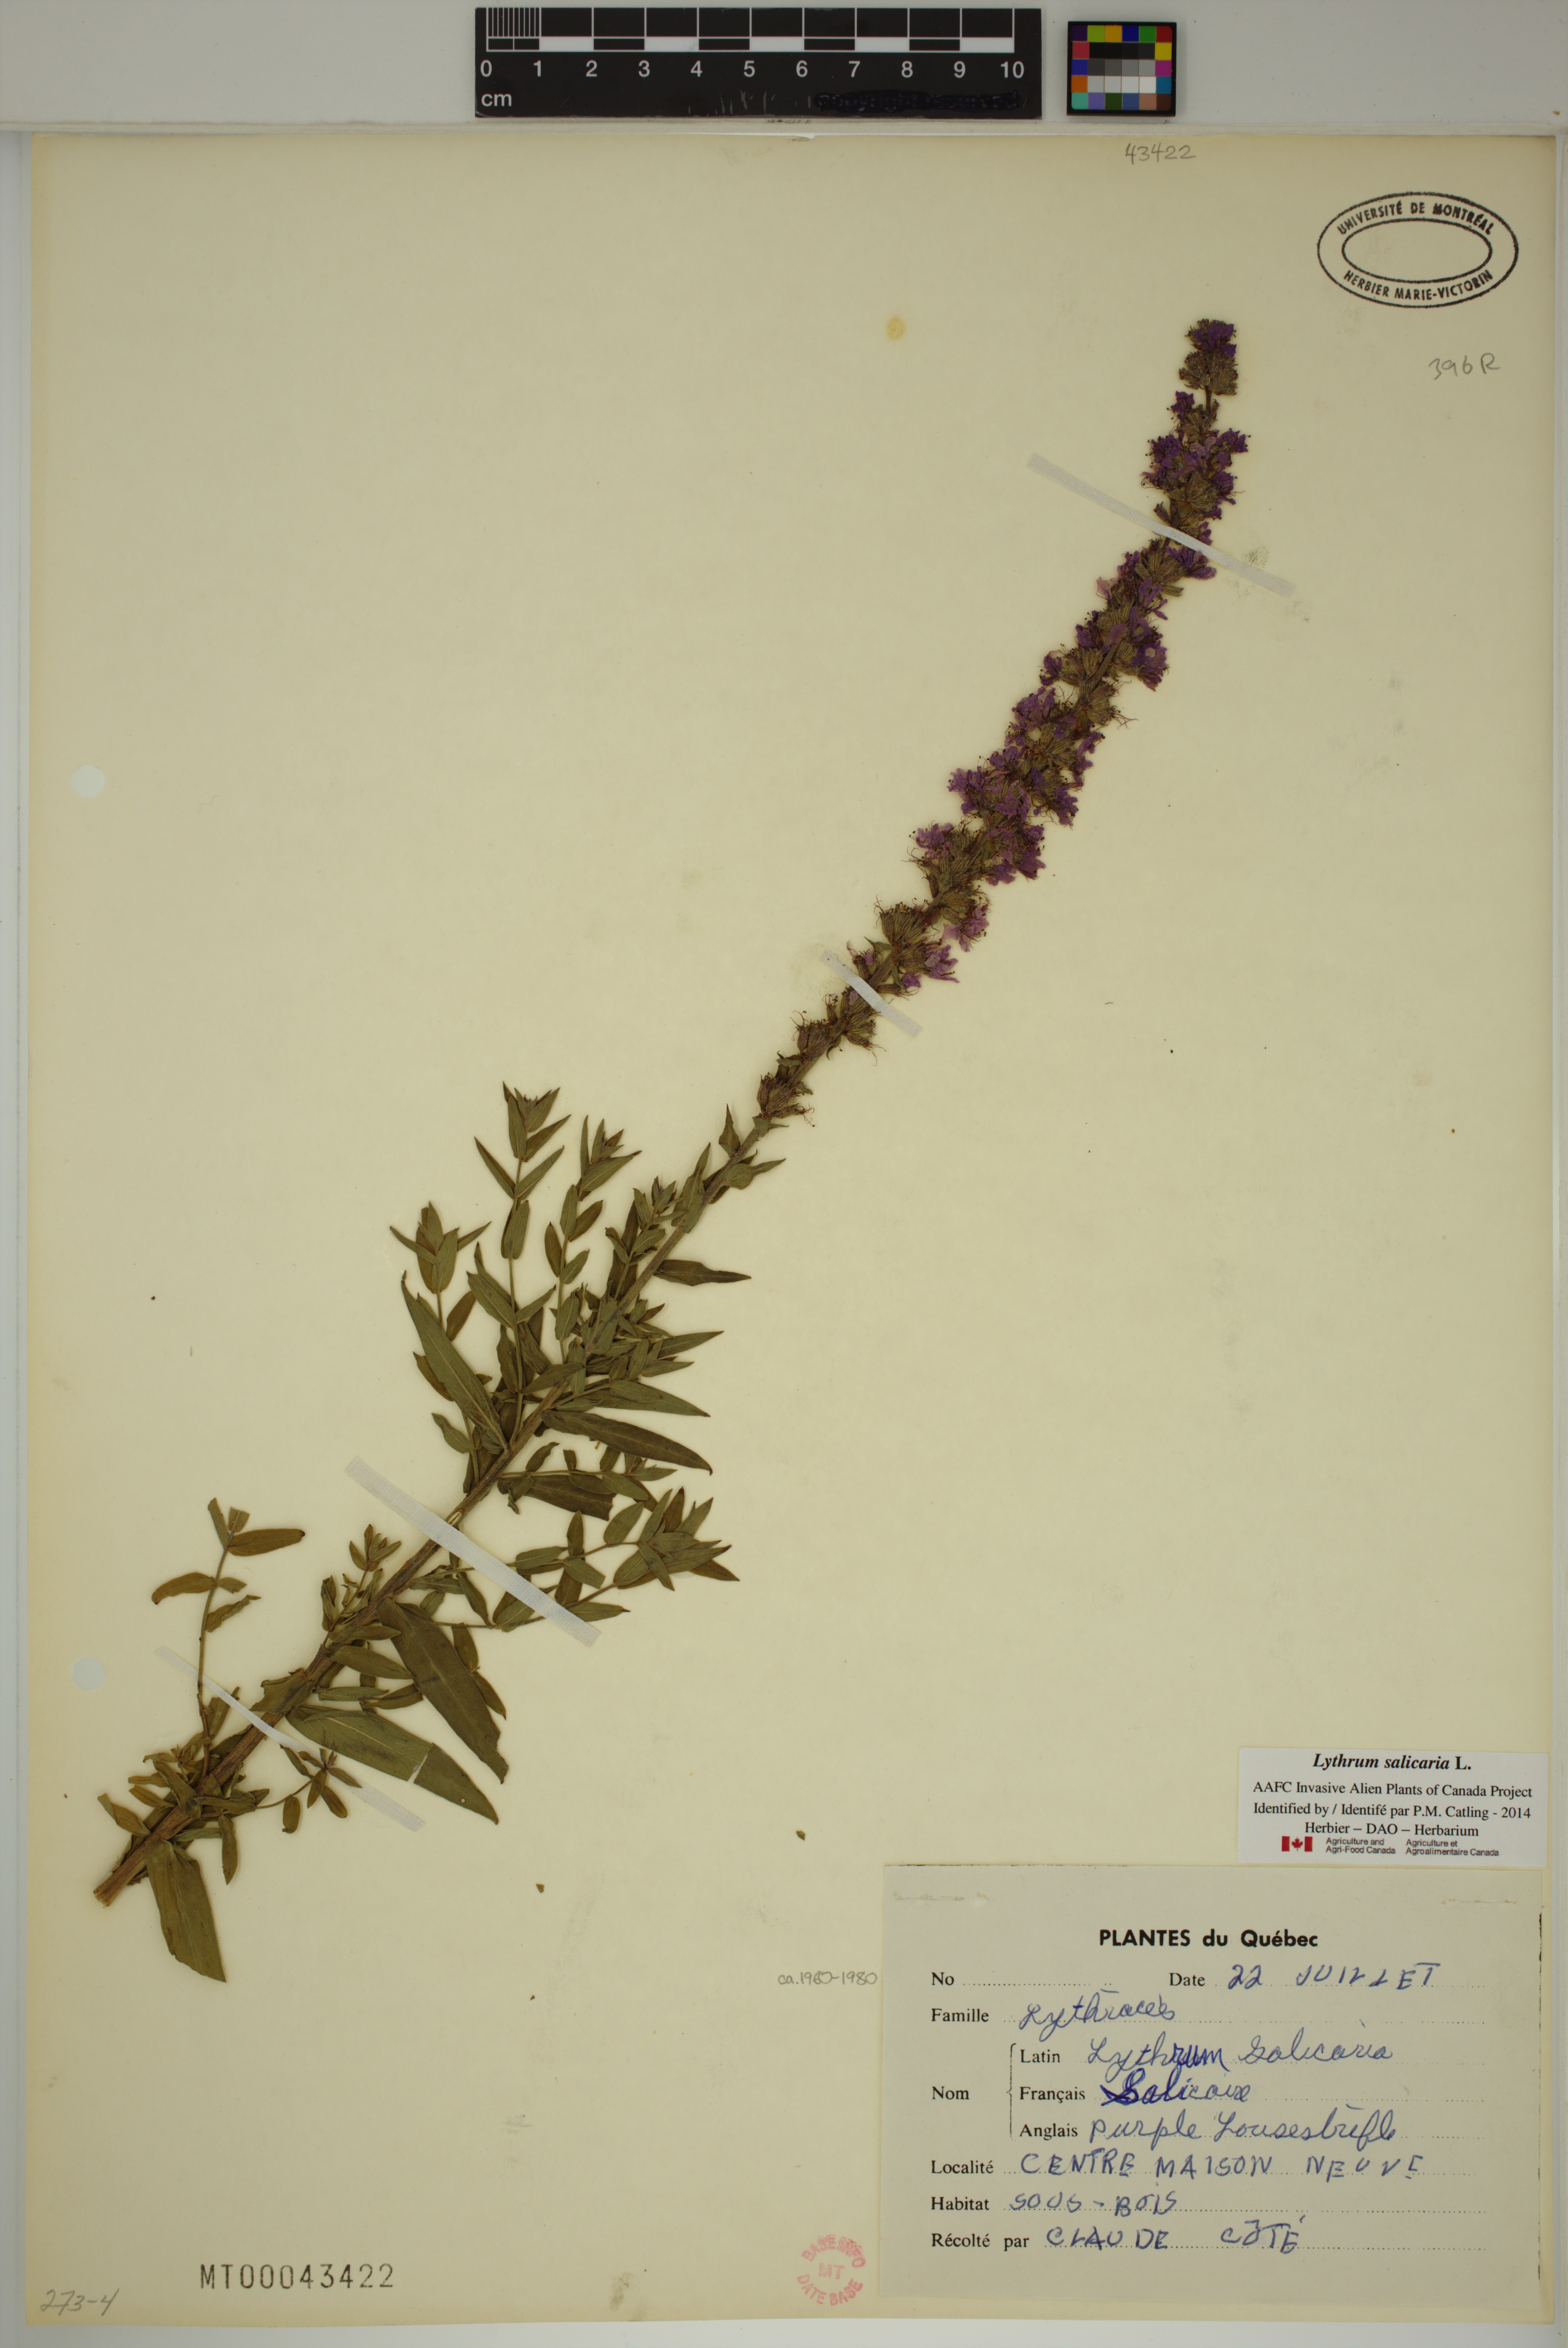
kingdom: Plantae
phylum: Tracheophyta
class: Magnoliopsida
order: Myrtales
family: Lythraceae
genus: Lythrum
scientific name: Lythrum salicaria
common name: Purple loosestrife
